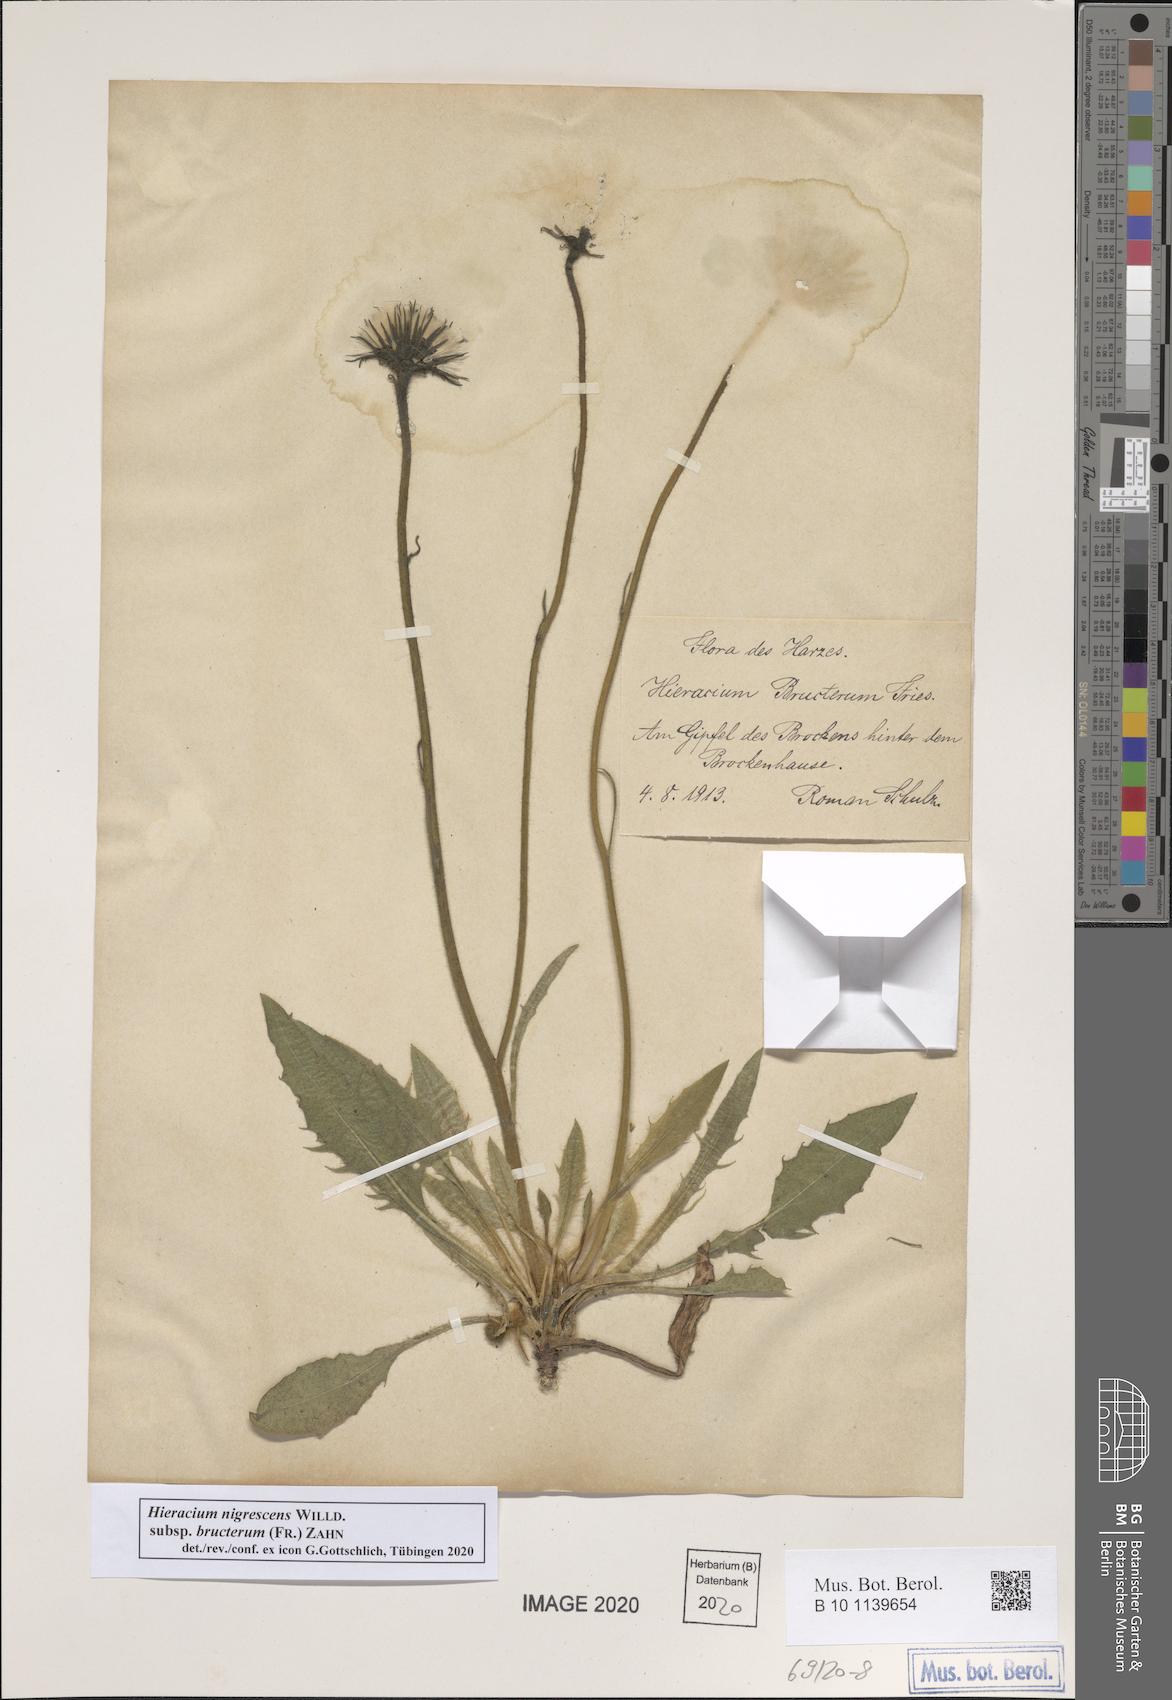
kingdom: Plantae
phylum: Tracheophyta
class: Magnoliopsida
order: Asterales
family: Asteraceae
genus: Hieracium
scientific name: Hieracium nigrescens
